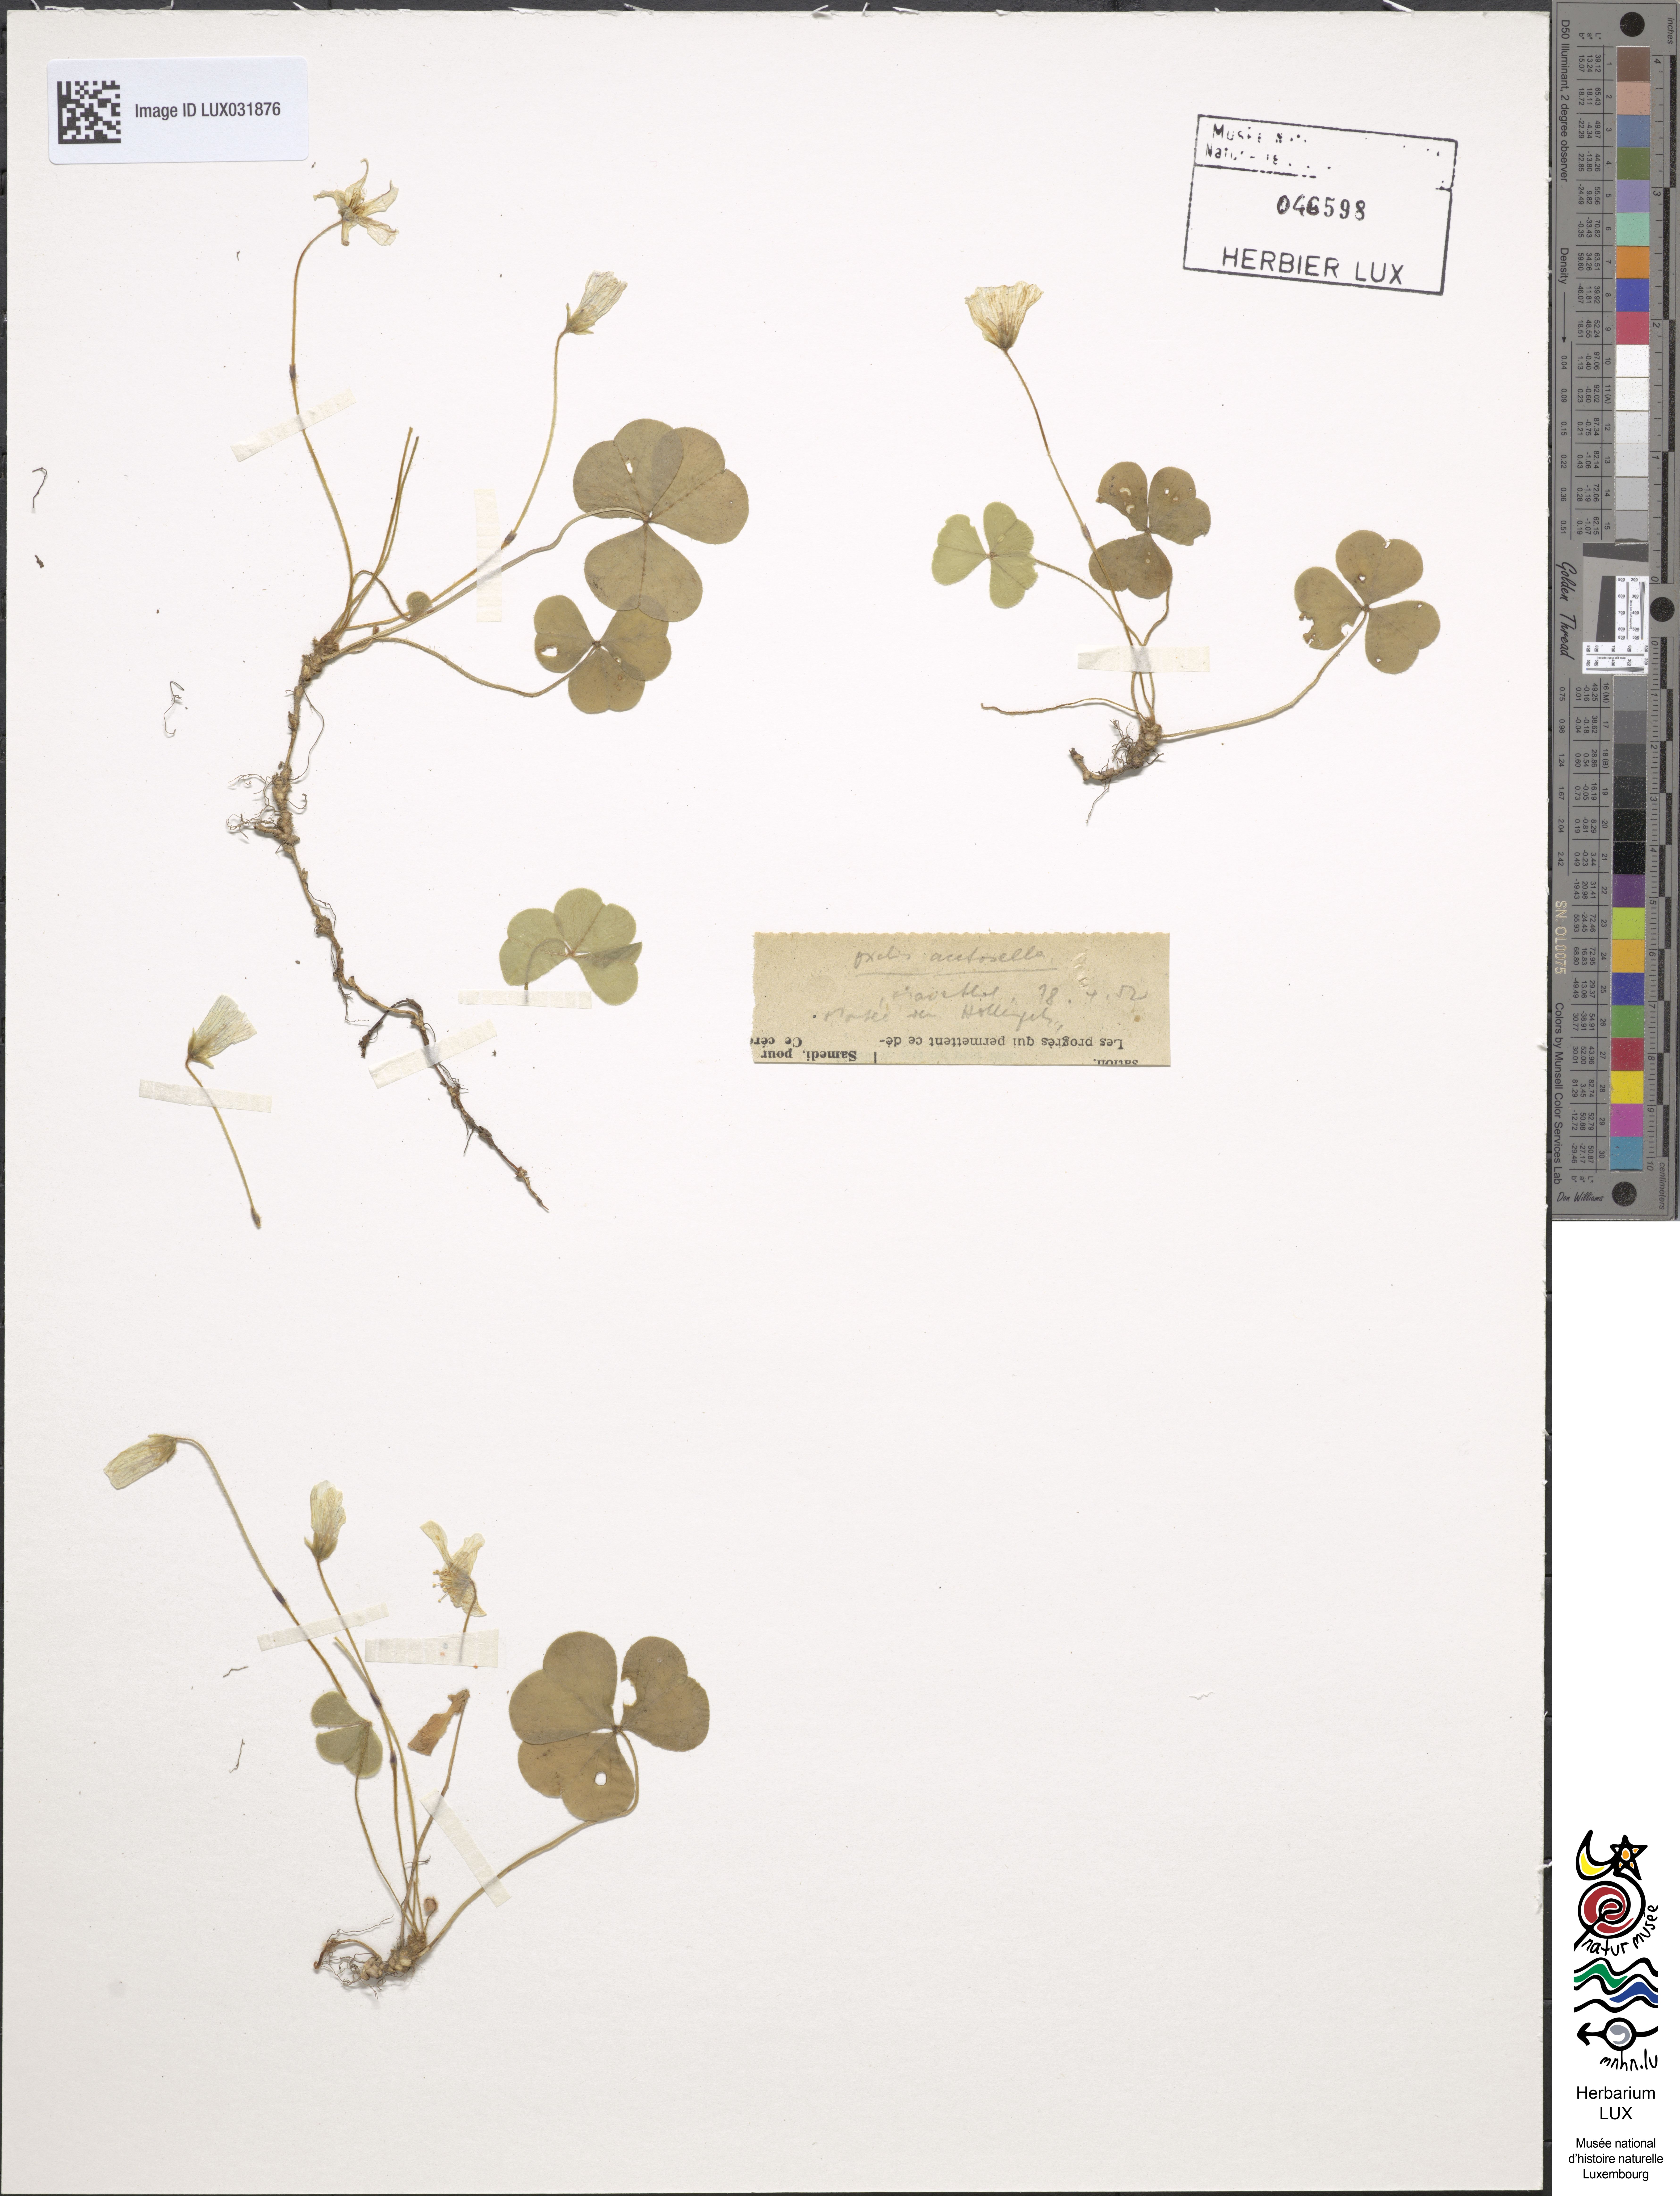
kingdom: Plantae
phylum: Tracheophyta
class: Magnoliopsida
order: Oxalidales
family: Oxalidaceae
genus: Oxalis
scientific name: Oxalis acetosella
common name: Wood-sorrel
